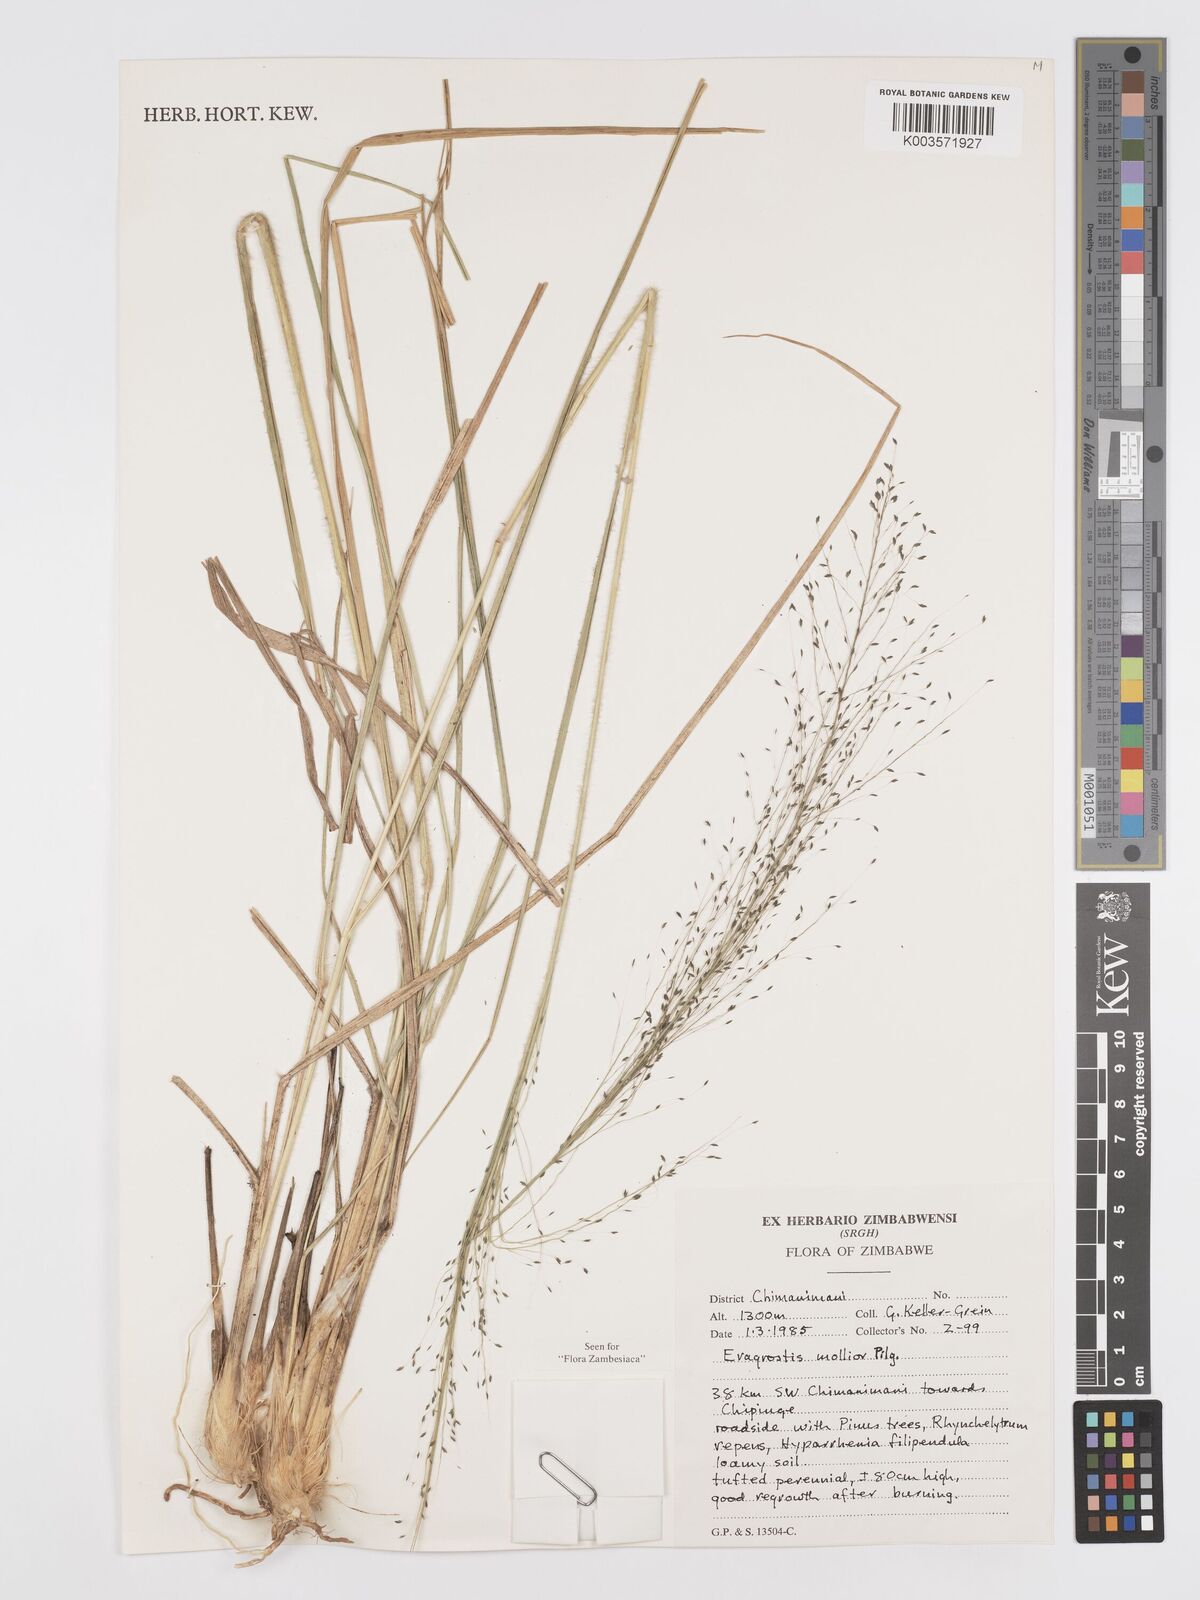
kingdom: Plantae
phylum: Tracheophyta
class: Liliopsida
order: Poales
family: Poaceae
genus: Eragrostis
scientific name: Eragrostis mollior
